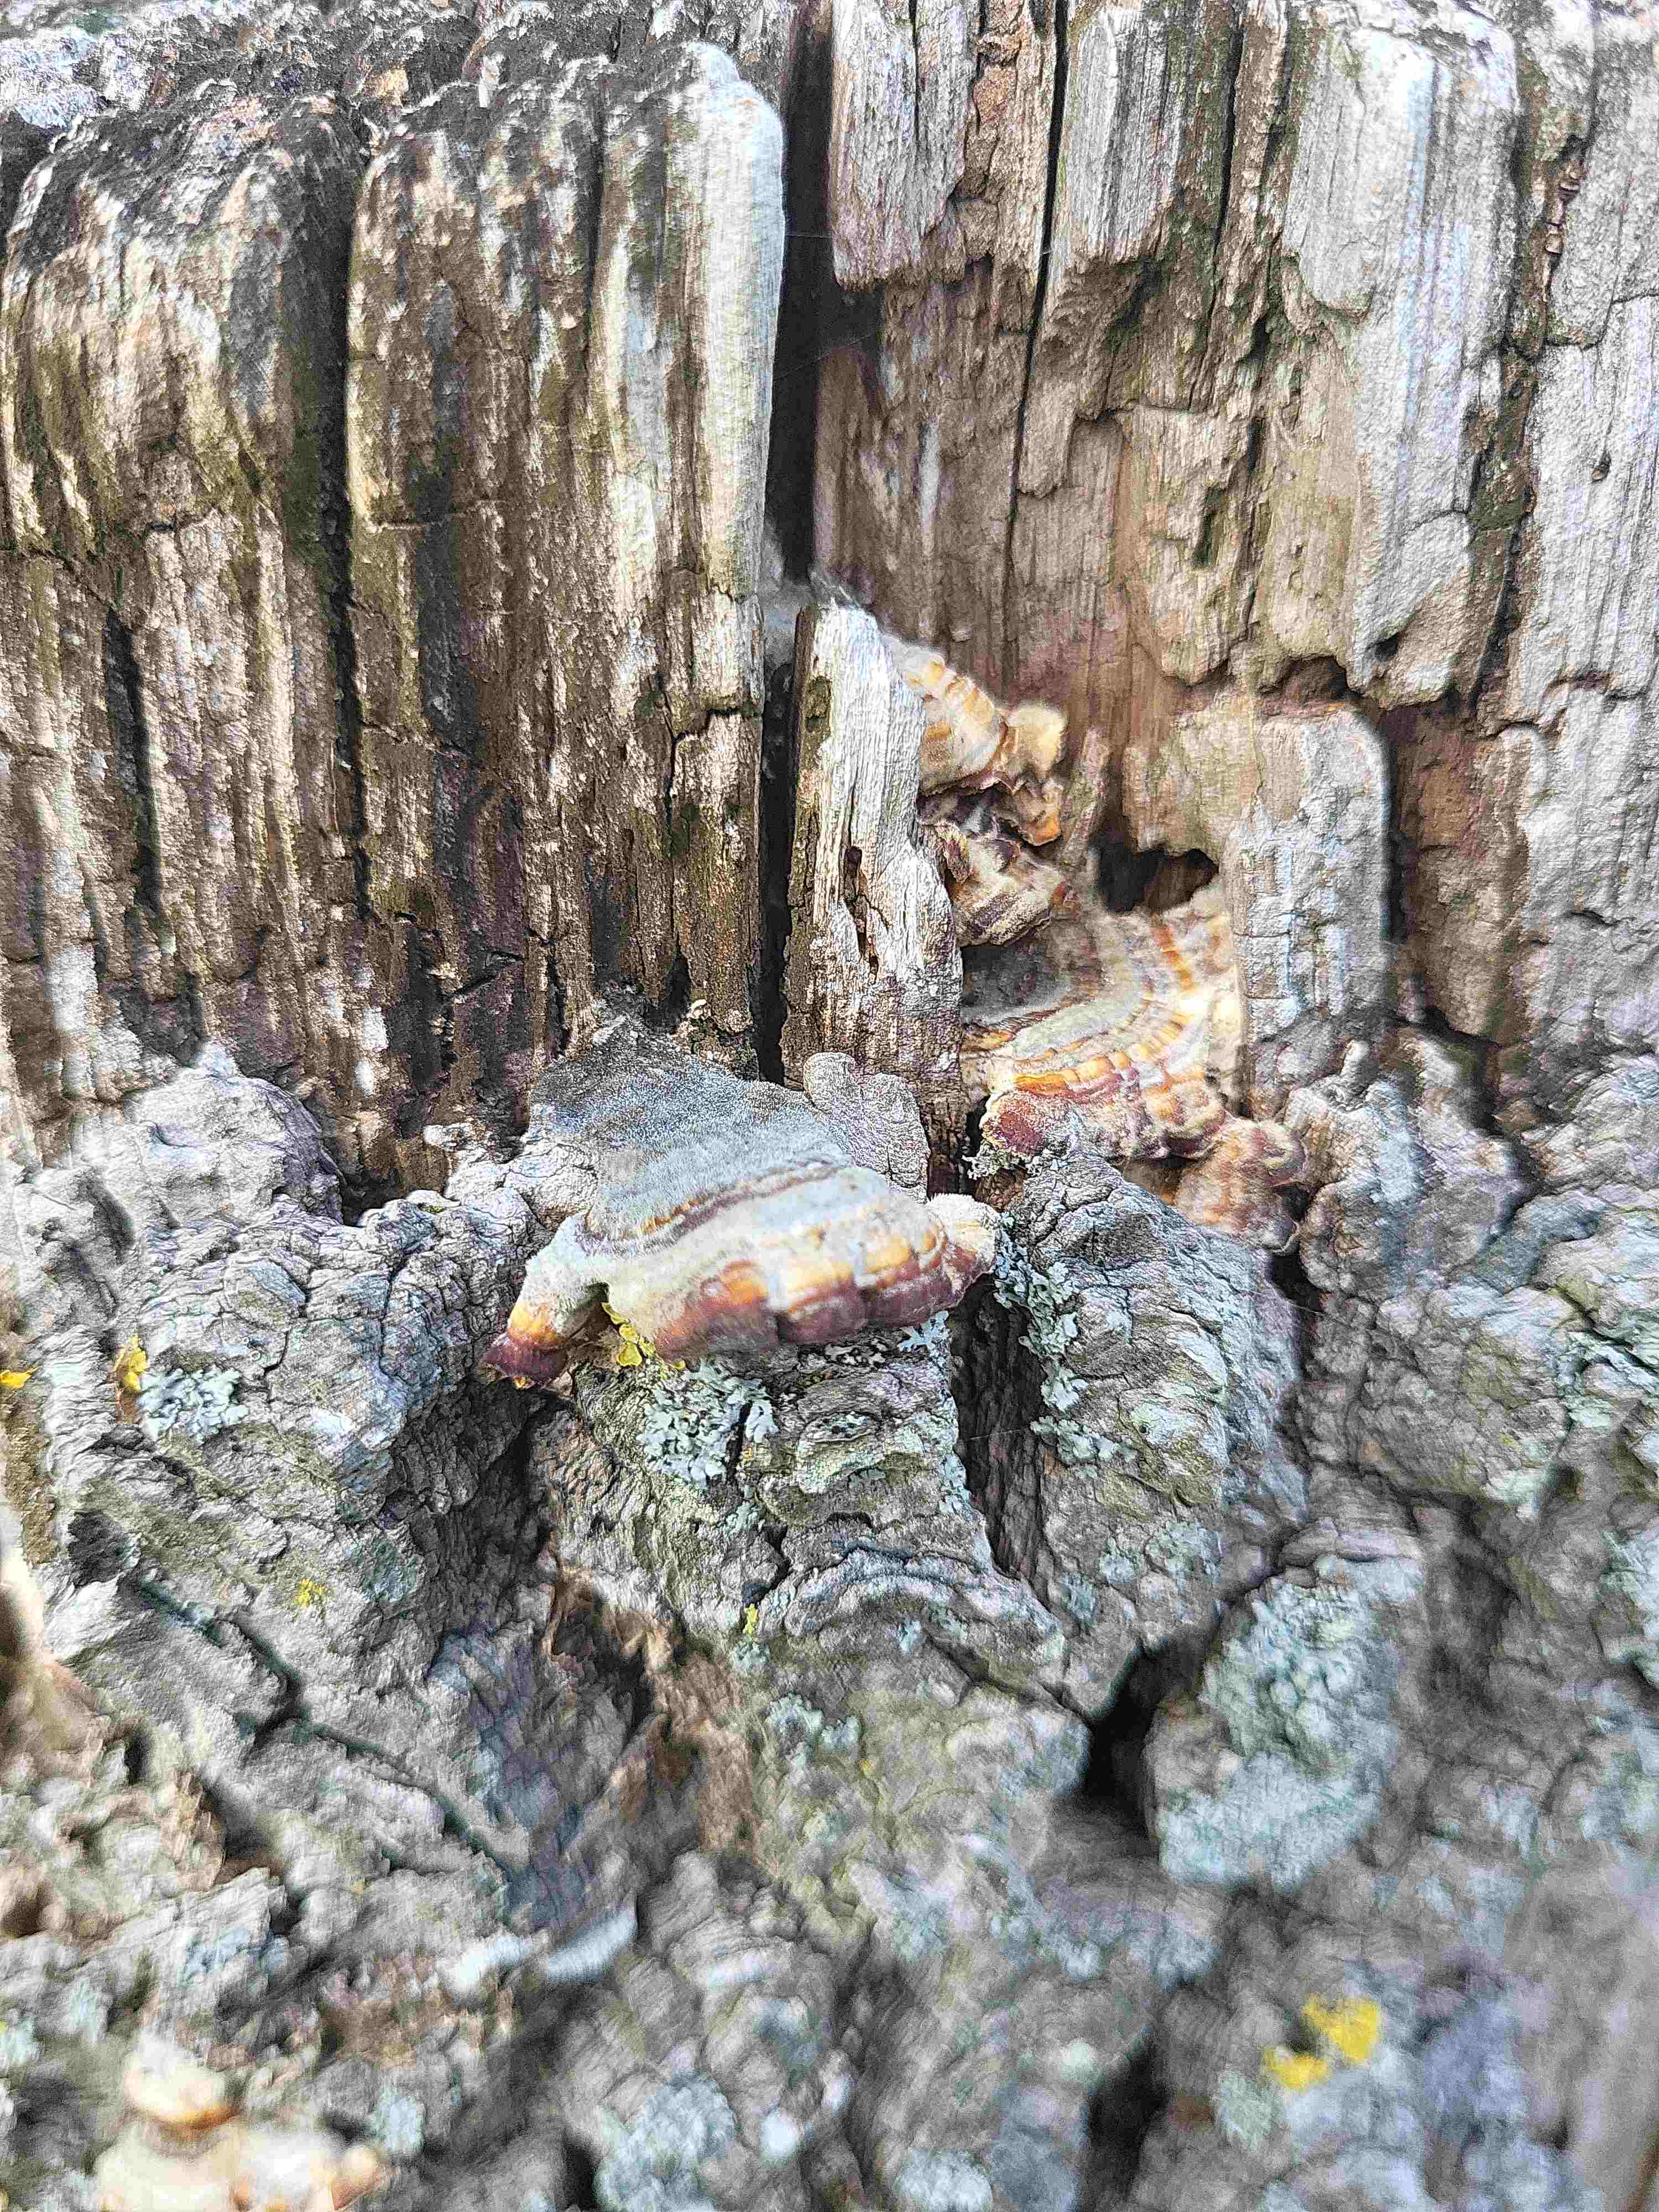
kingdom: Fungi
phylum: Basidiomycota
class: Agaricomycetes
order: Polyporales
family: Polyporaceae
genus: Trametes
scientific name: Trametes
